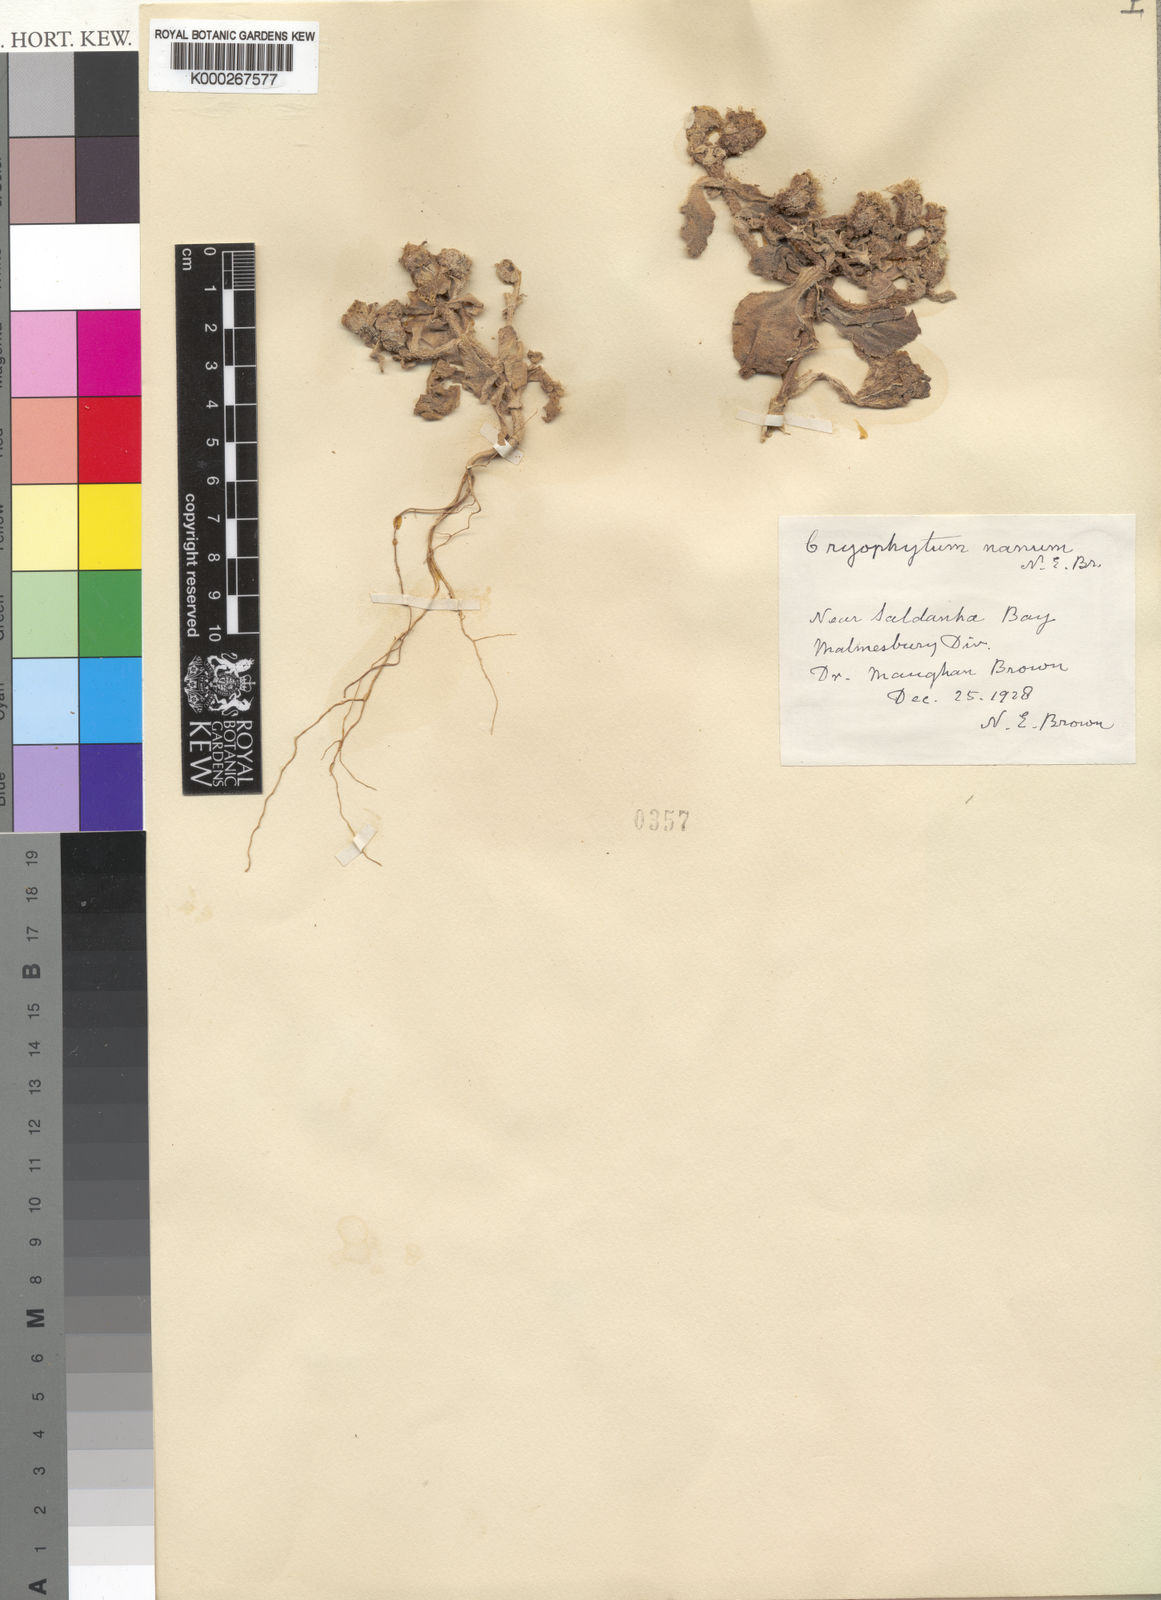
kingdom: Plantae
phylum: Tracheophyta
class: Magnoliopsida
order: Caryophyllales
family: Aizoaceae
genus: Mesembryanthemum
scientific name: Mesembryanthemum guerichianum
